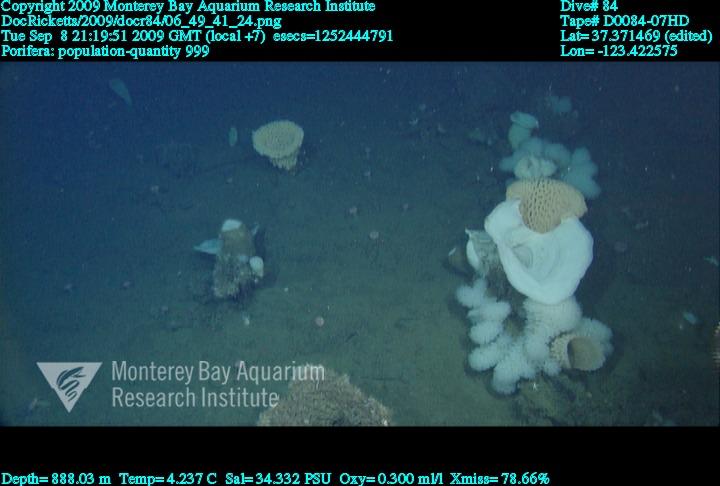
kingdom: Animalia
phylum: Porifera
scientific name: Porifera
